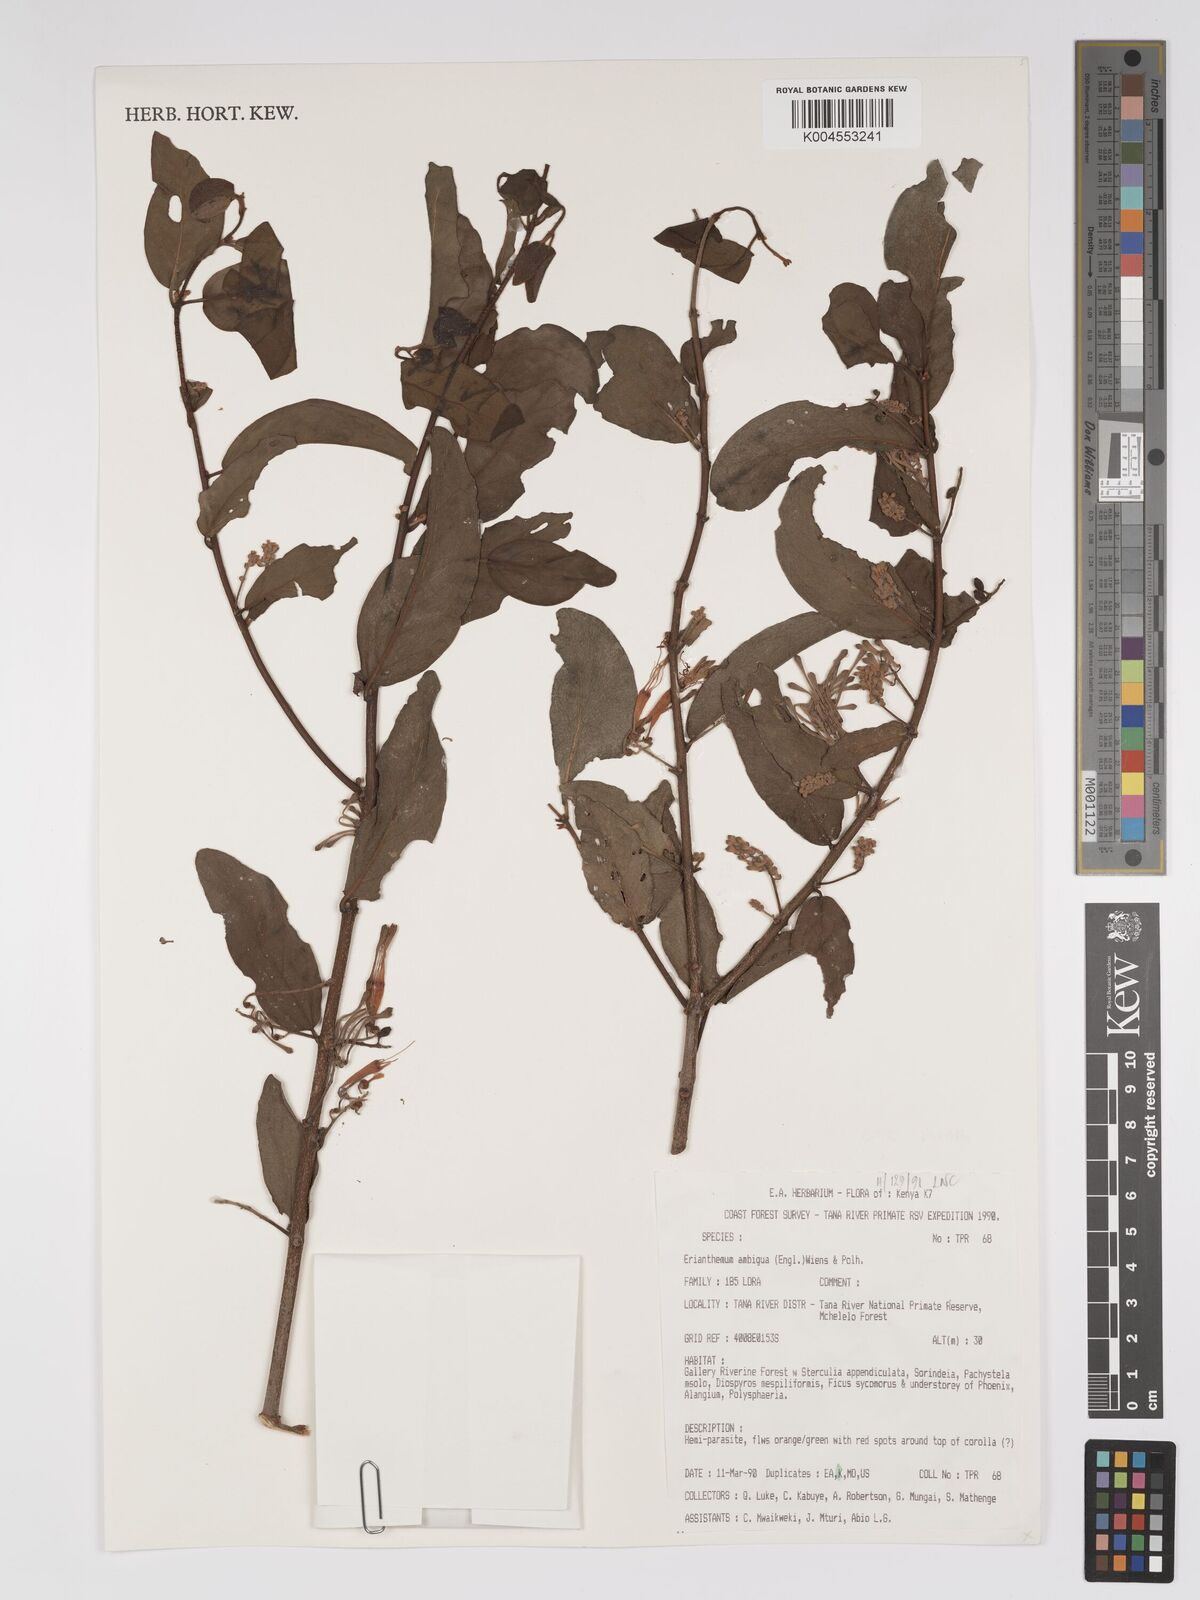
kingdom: Plantae
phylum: Tracheophyta
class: Magnoliopsida
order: Santalales
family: Loranthaceae
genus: Oncella
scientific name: Oncella ambigua
